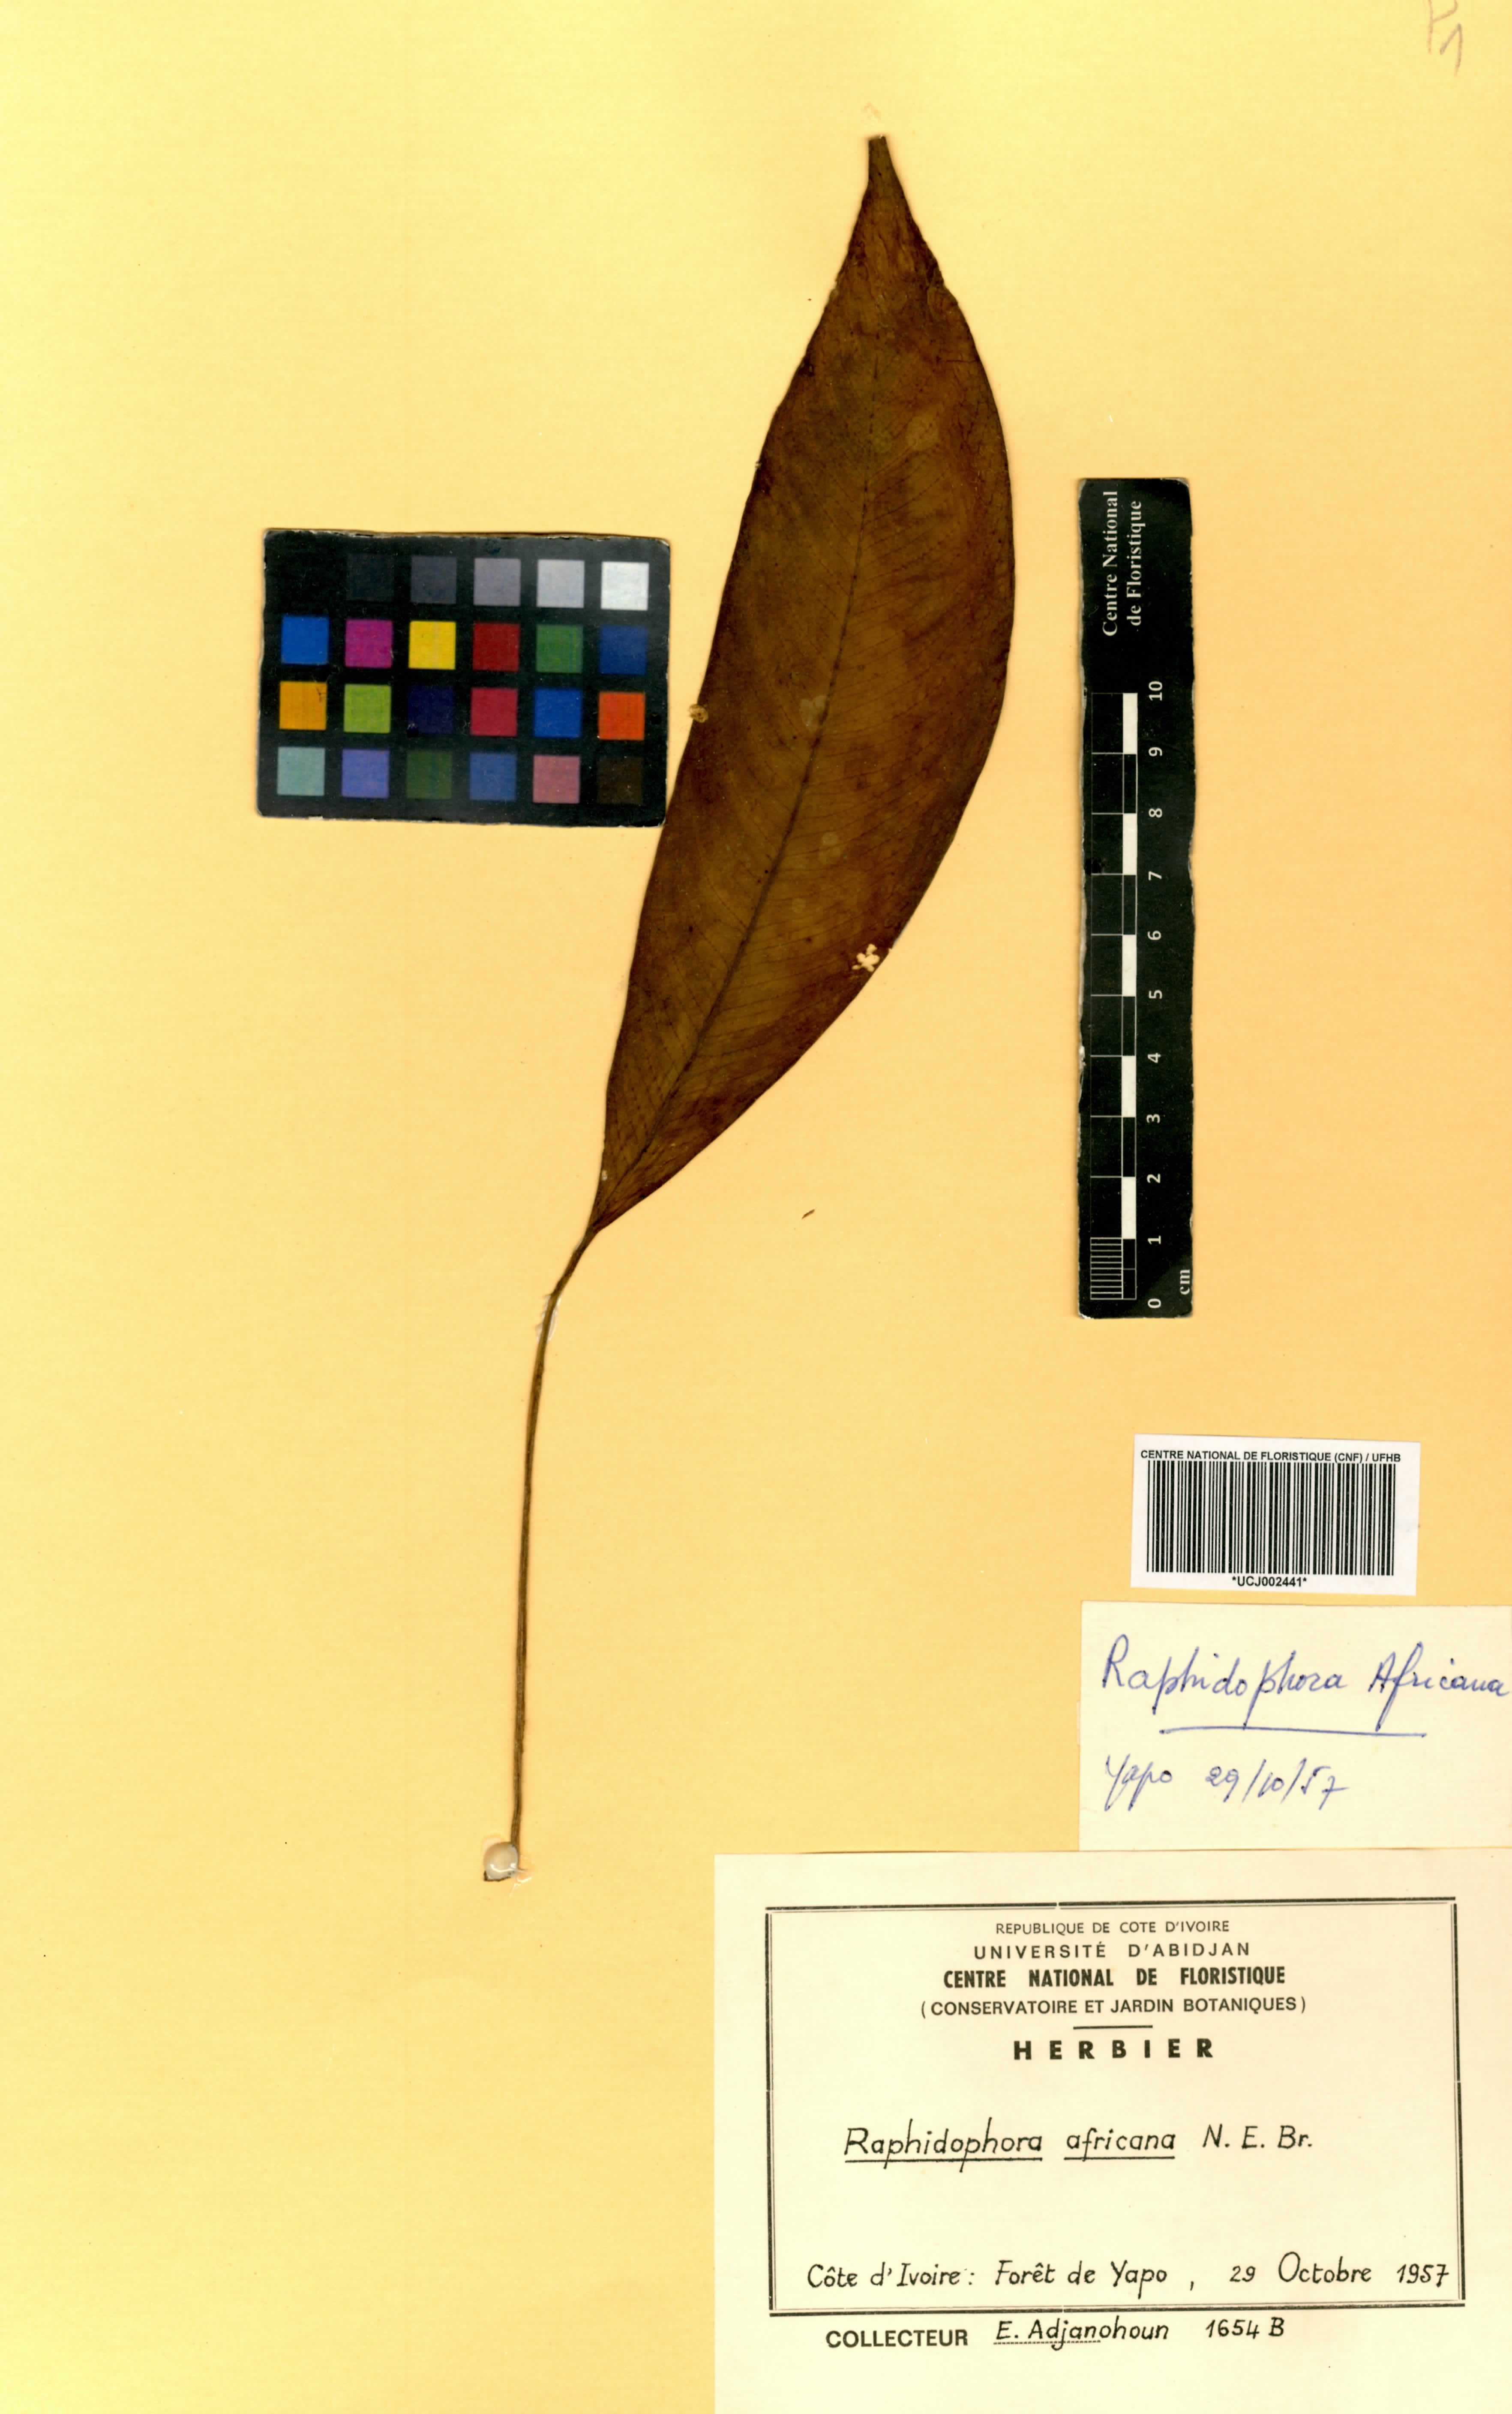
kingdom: Plantae
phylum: Tracheophyta
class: Liliopsida
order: Alismatales
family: Araceae
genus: Rhaphidophora
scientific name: Rhaphidophora africana
